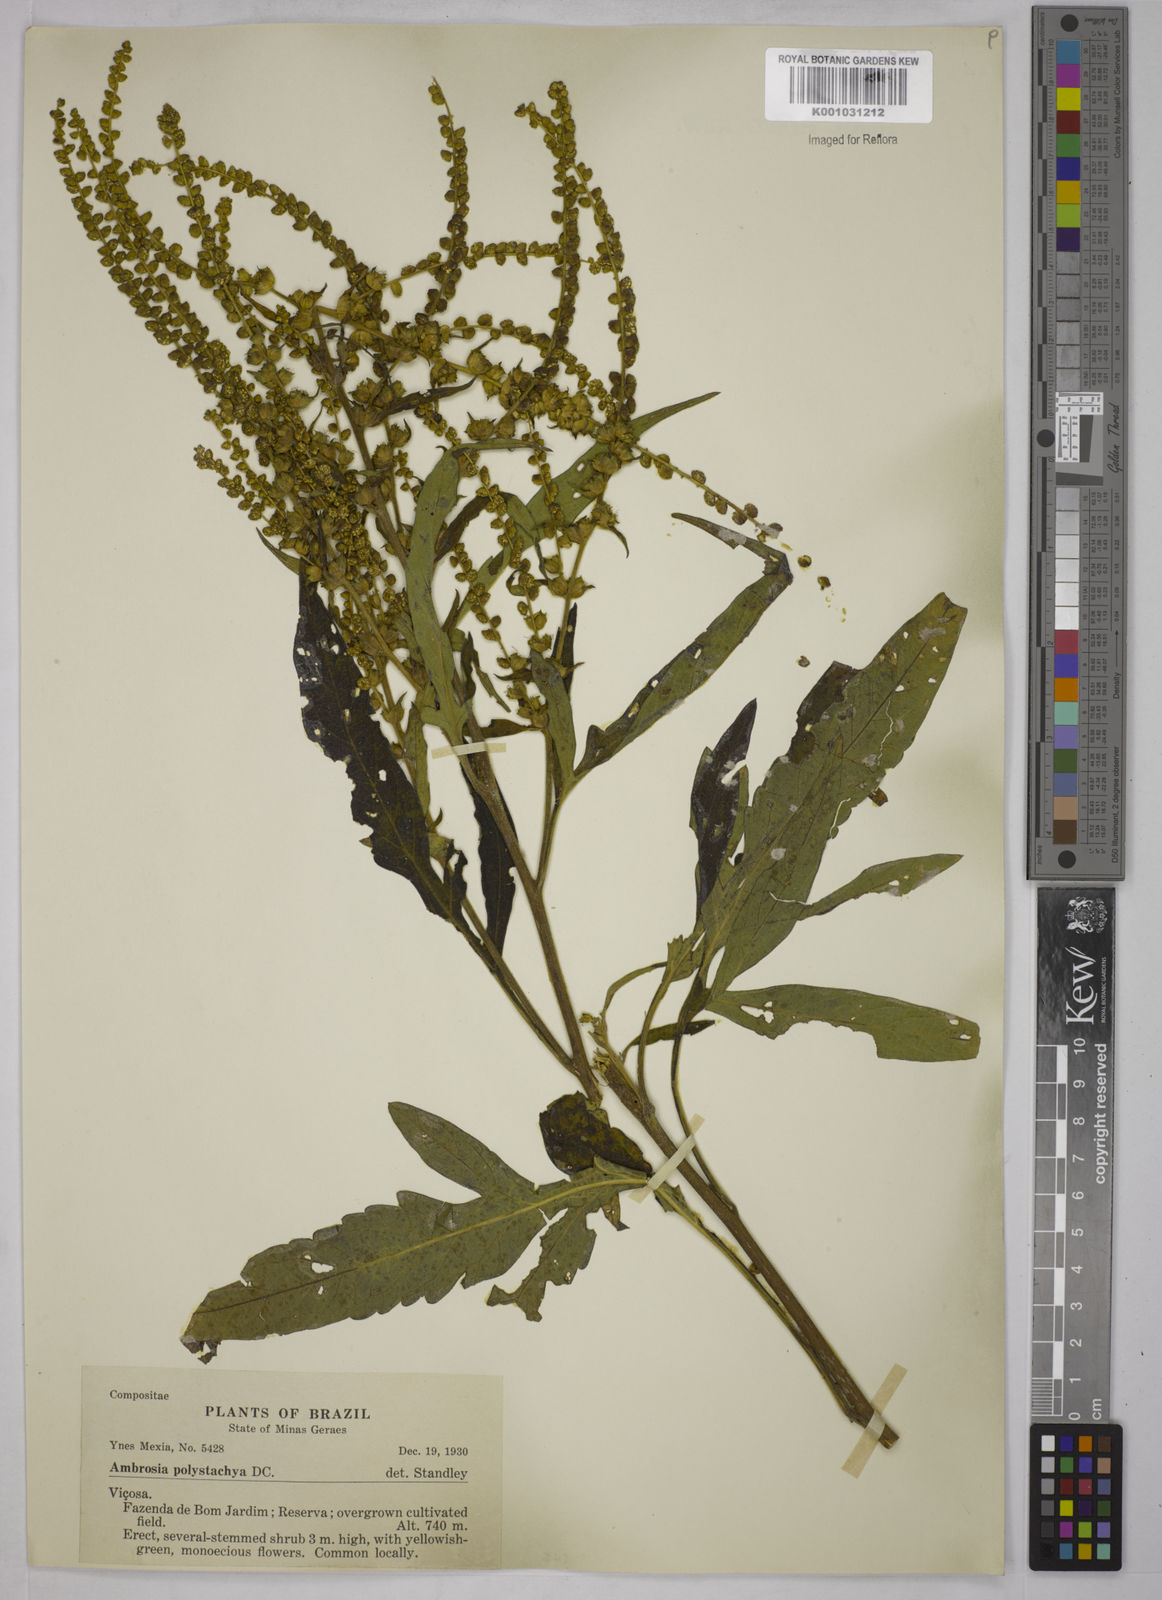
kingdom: Plantae
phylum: Tracheophyta
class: Magnoliopsida
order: Asterales
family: Asteraceae
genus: Ambrosia
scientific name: Ambrosia polystachya
